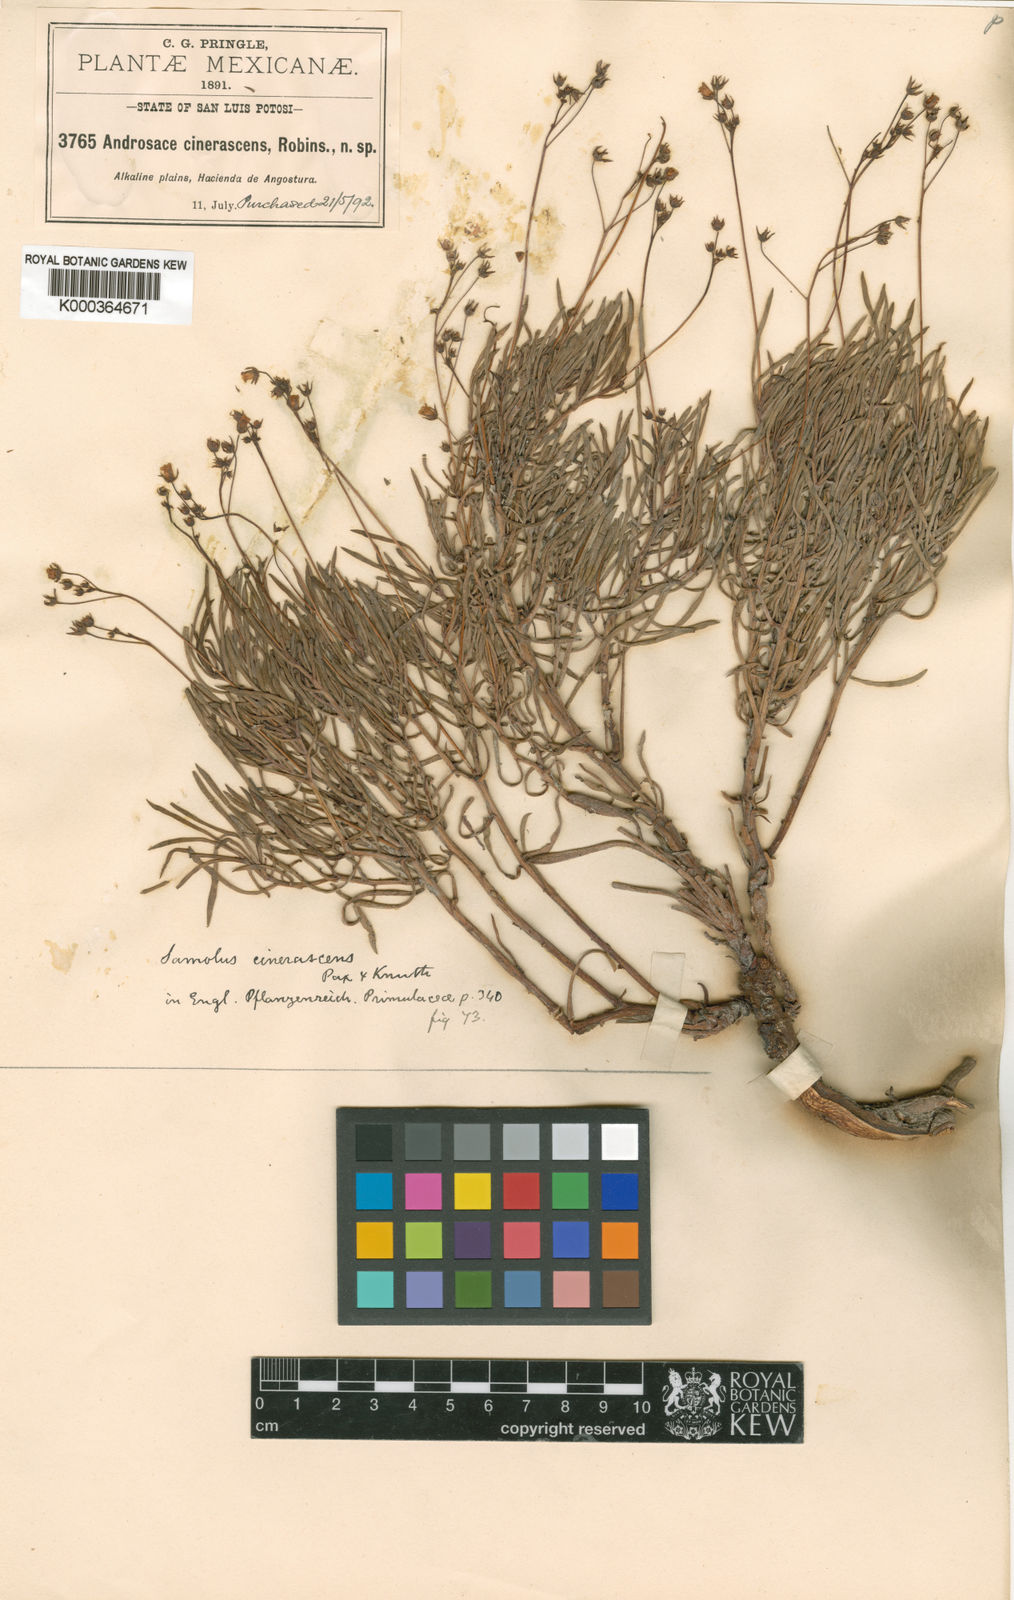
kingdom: Plantae
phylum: Tracheophyta
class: Magnoliopsida
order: Ericales
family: Primulaceae
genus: Samolus
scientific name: Samolus cinerascens
